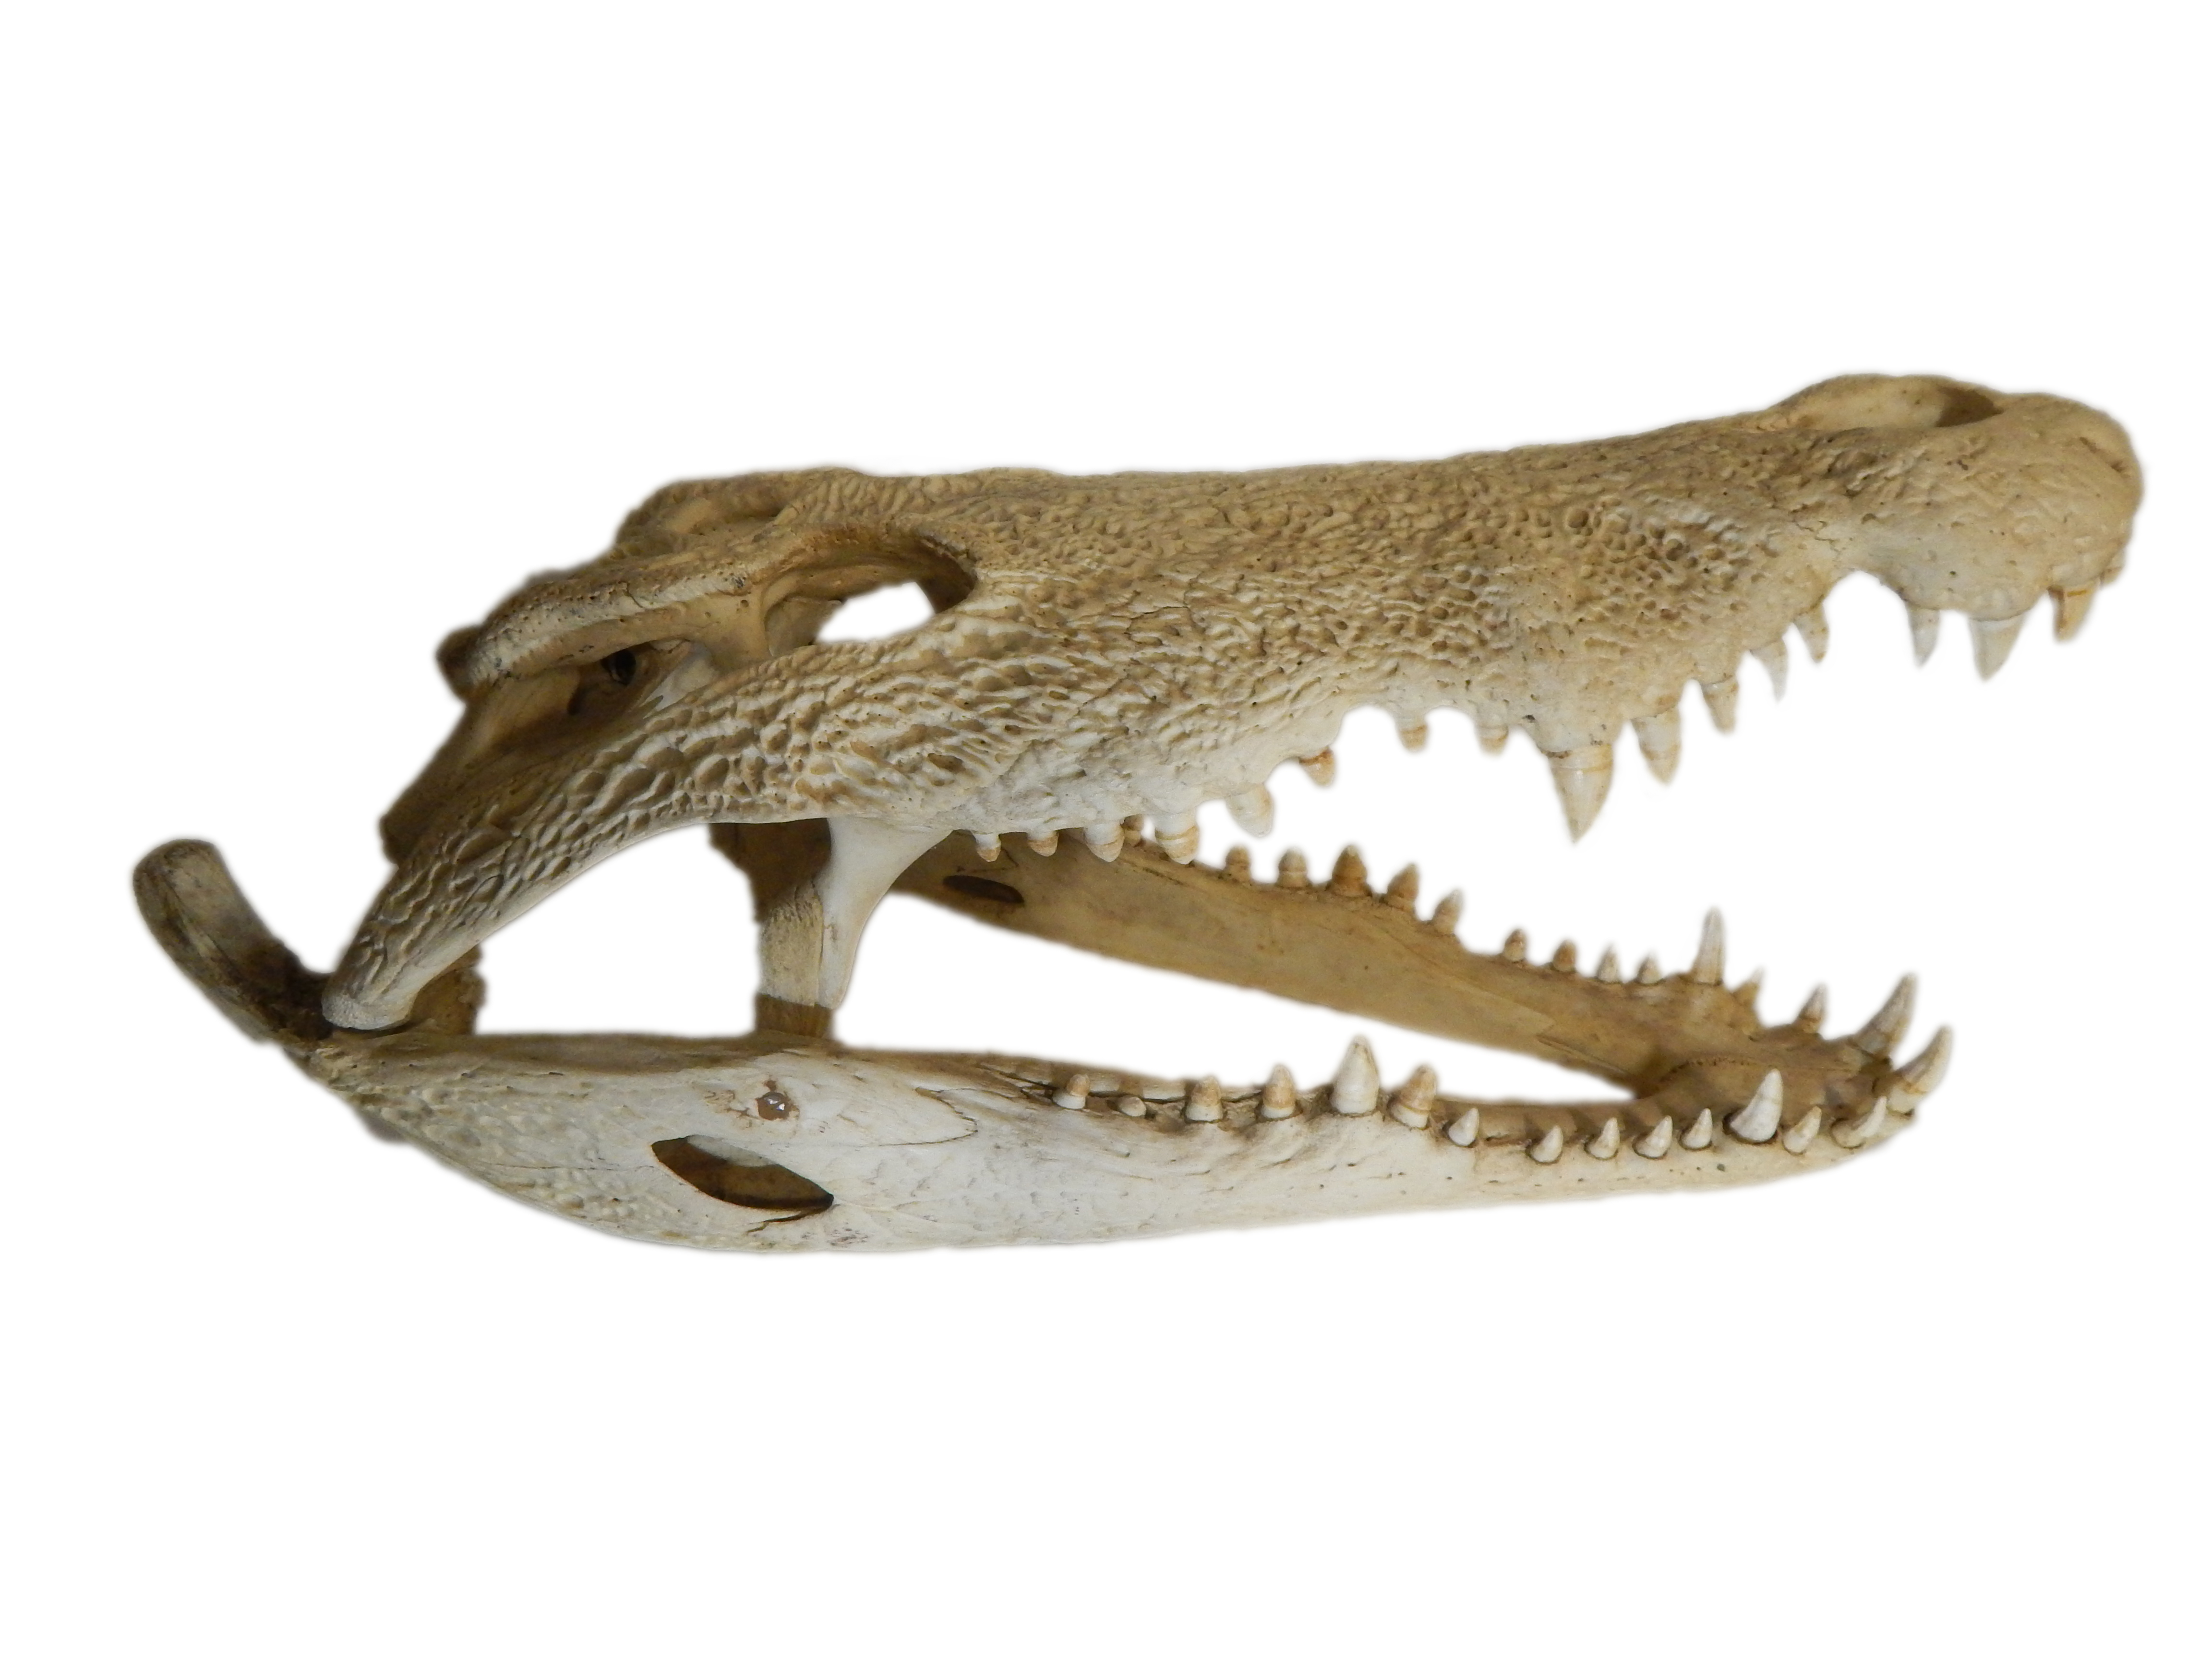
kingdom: Animalia
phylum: Chordata
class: Crocodylia
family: Crocodylidae
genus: Crocodylus
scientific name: Crocodylus niloticus
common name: Nile crocodile
